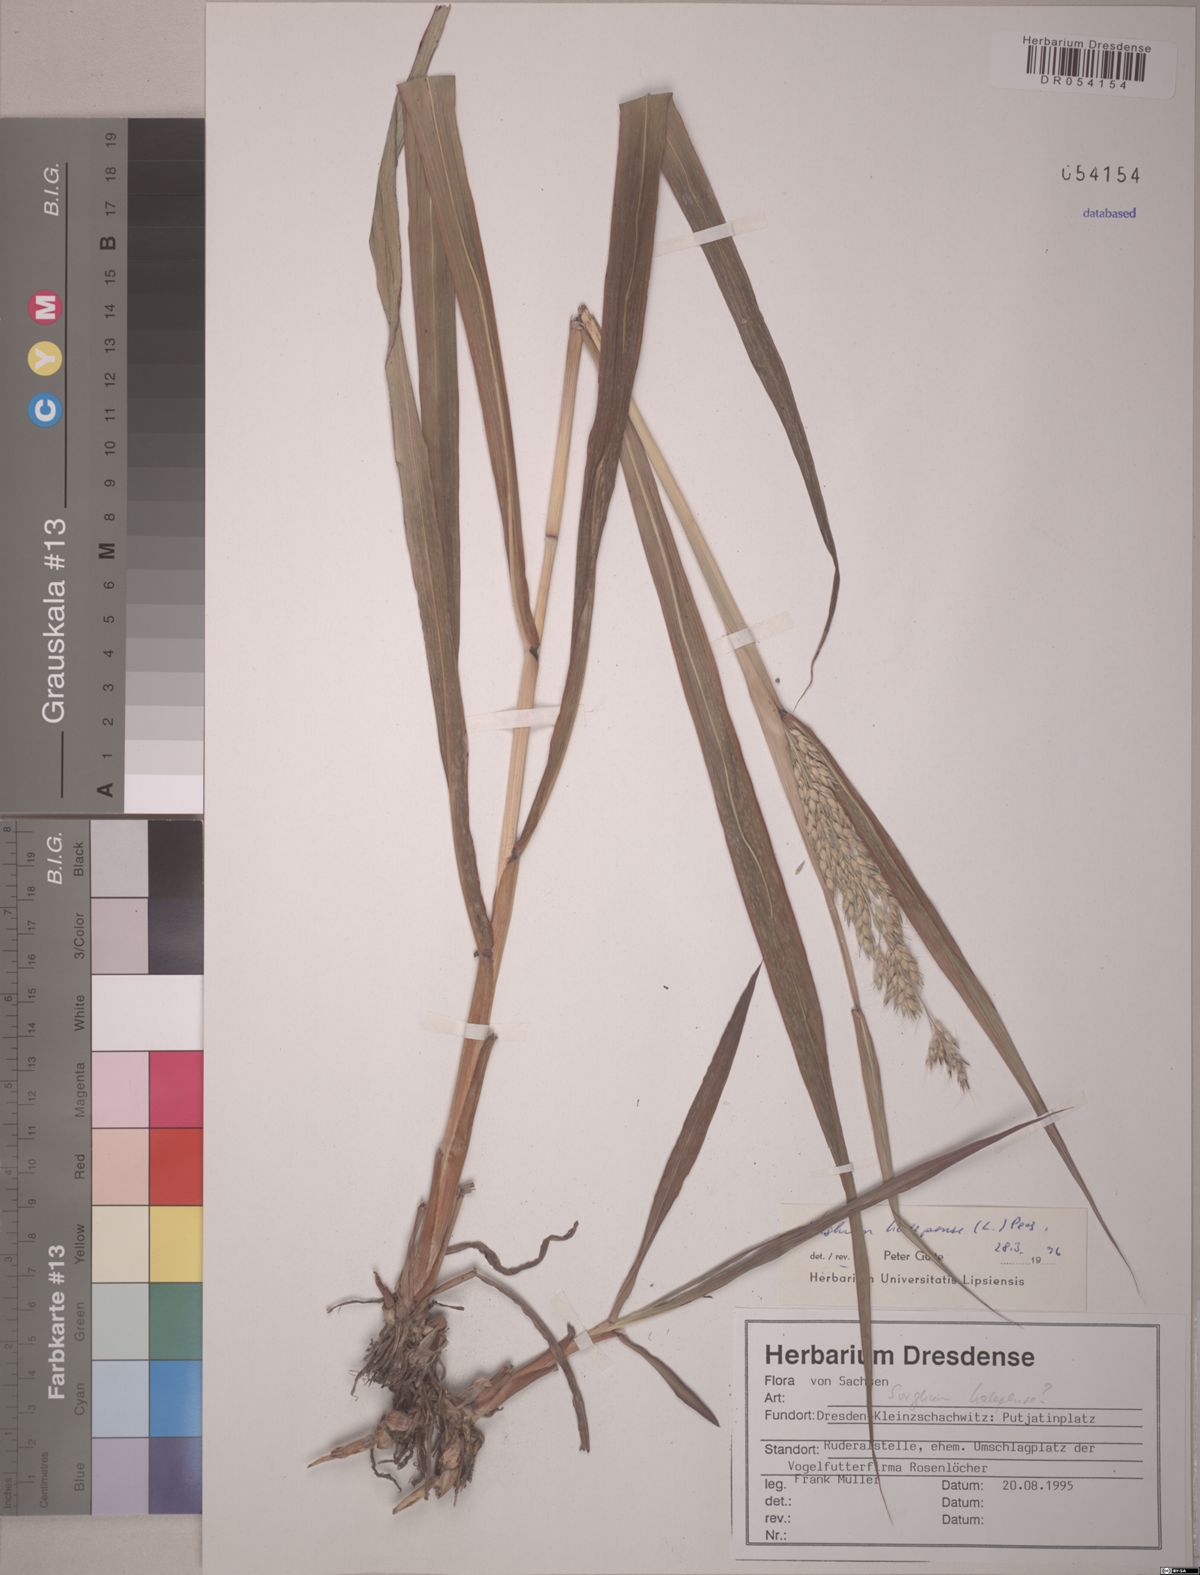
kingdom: Plantae
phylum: Tracheophyta
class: Liliopsida
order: Poales
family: Poaceae
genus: Sorghum
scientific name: Sorghum halepense
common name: Johnson-grass
